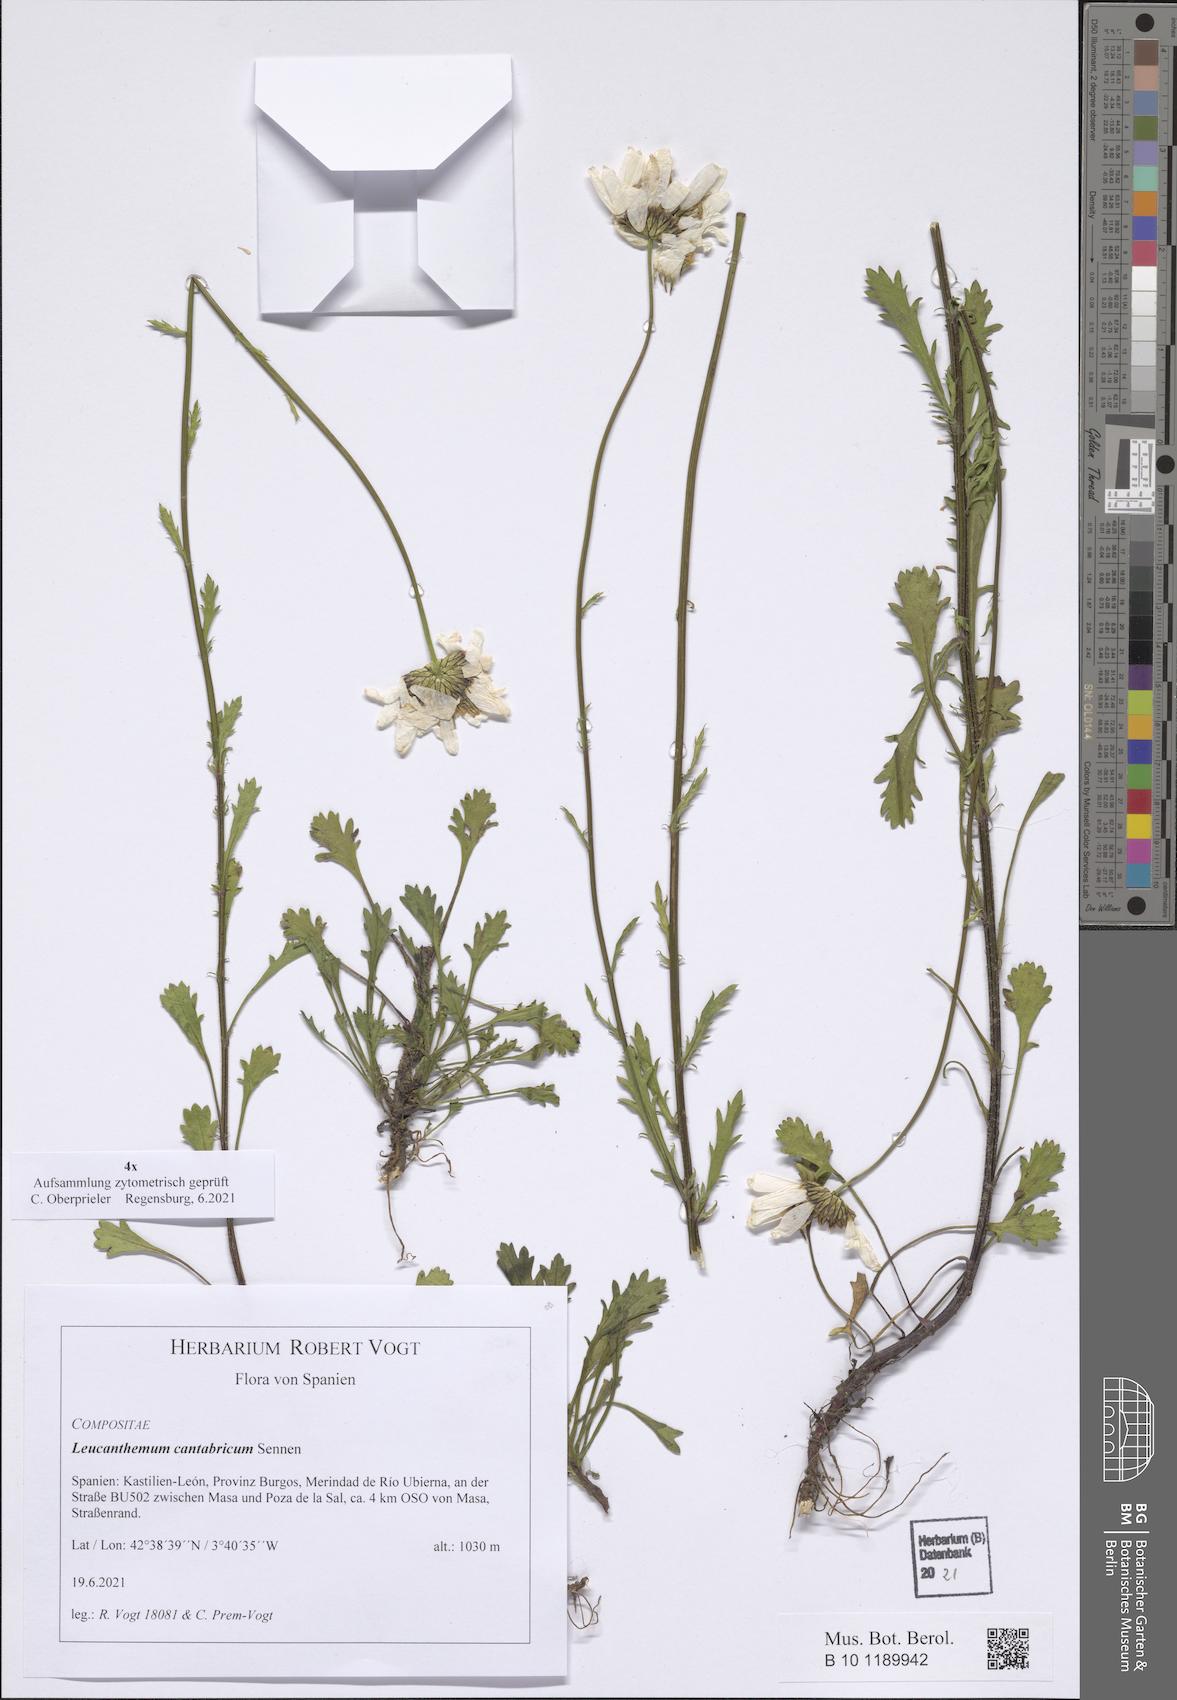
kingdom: Plantae
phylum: Tracheophyta
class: Magnoliopsida
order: Asterales
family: Asteraceae
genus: Leucanthemum
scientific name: Leucanthemum cantabricum
